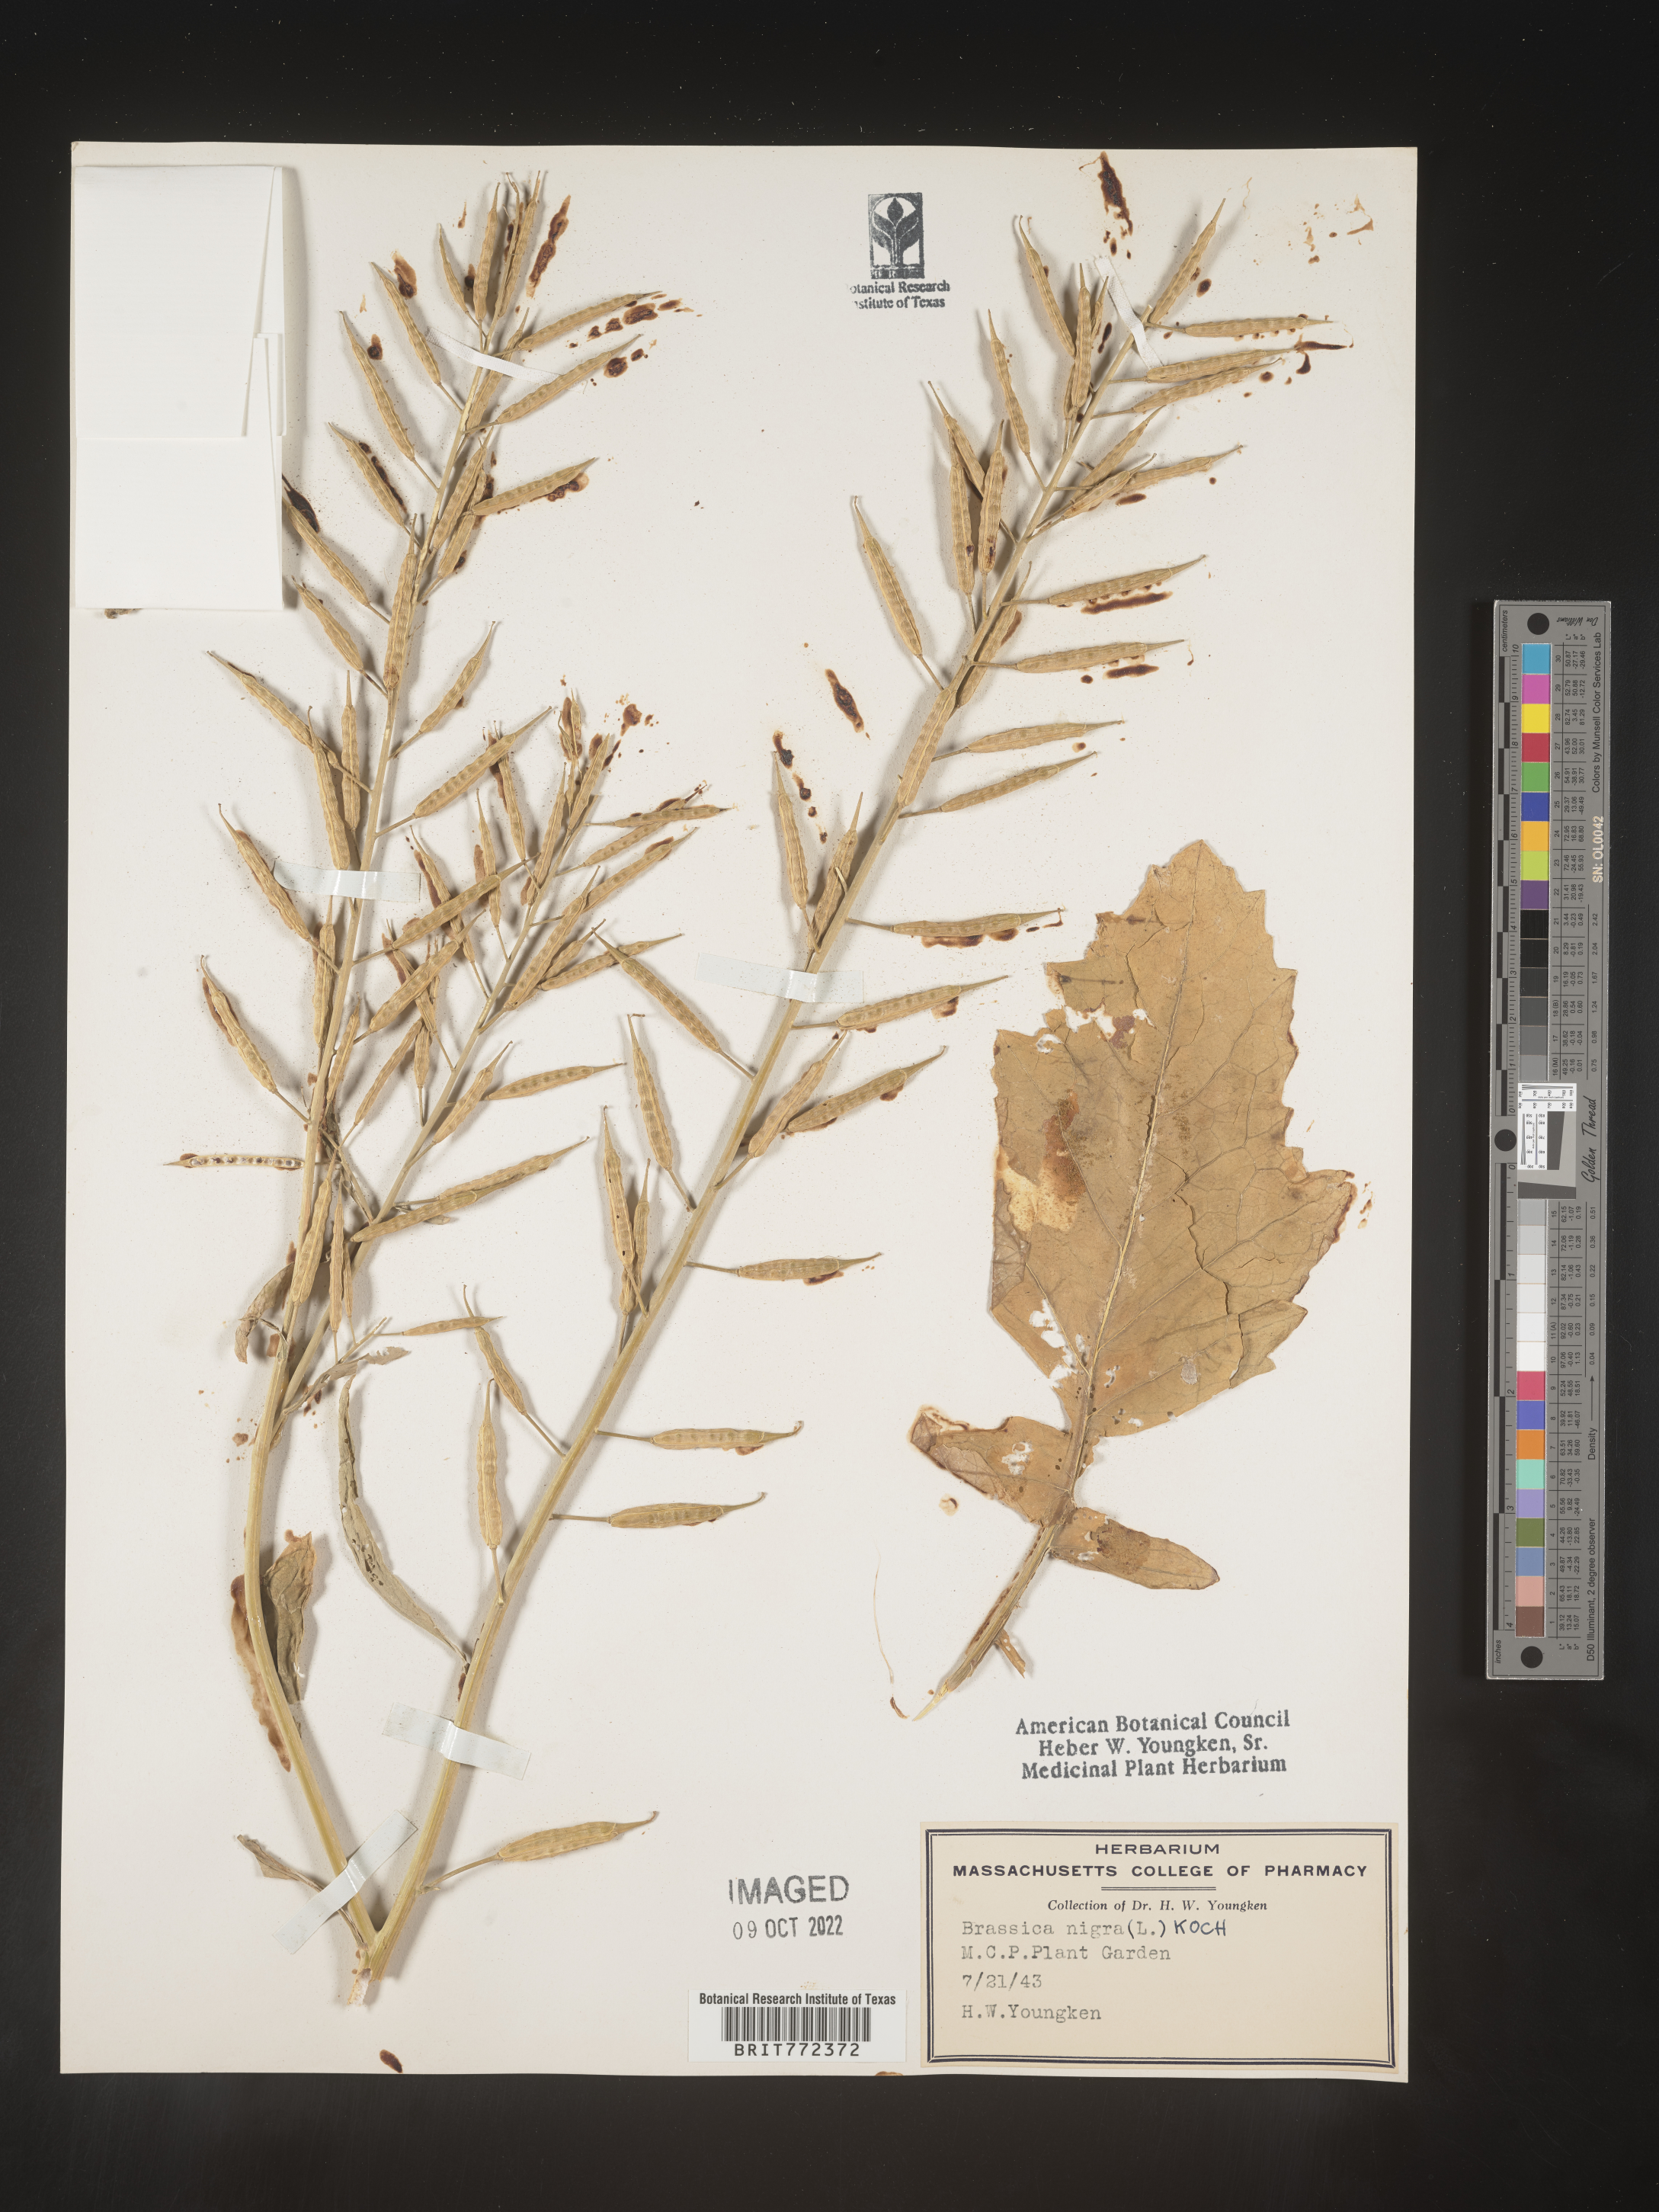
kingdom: Plantae
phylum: Tracheophyta
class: Magnoliopsida
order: Brassicales
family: Brassicaceae
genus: Brassica
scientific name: Brassica
